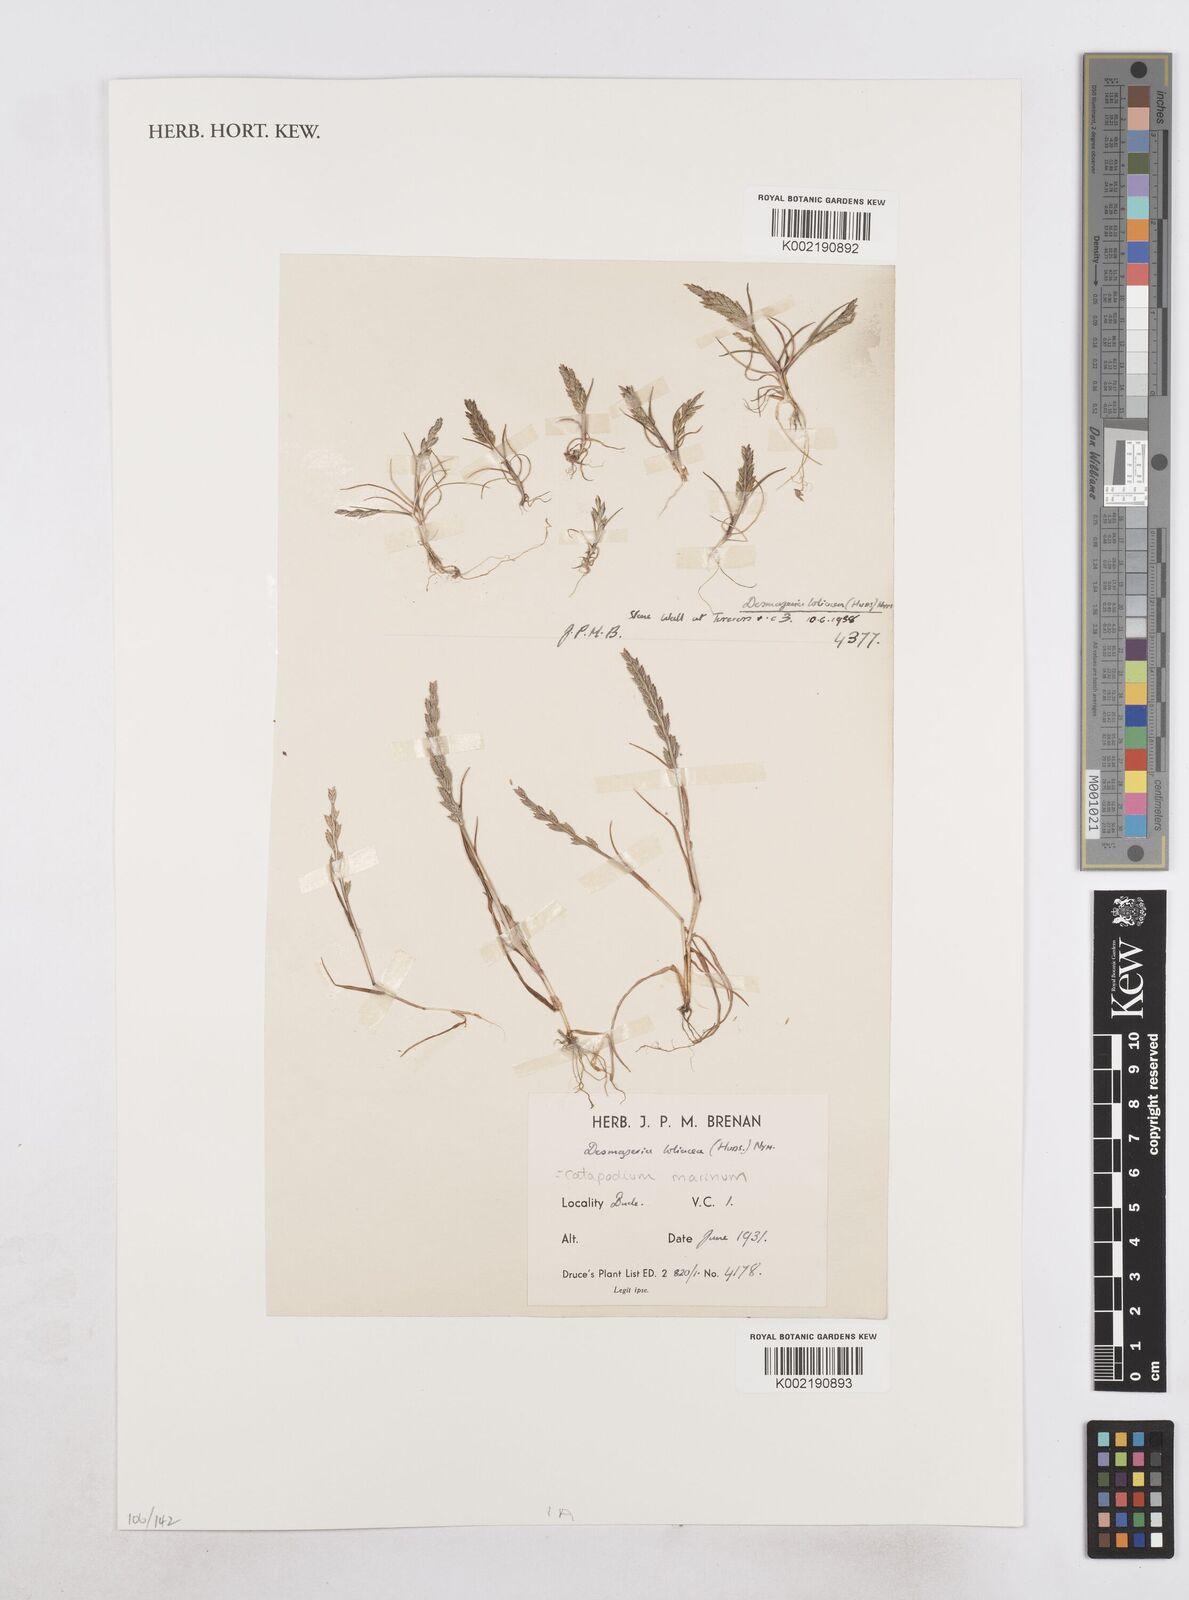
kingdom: Plantae
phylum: Tracheophyta
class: Liliopsida
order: Poales
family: Poaceae
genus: Catapodium
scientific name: Catapodium marinum
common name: Sea fern-grass
